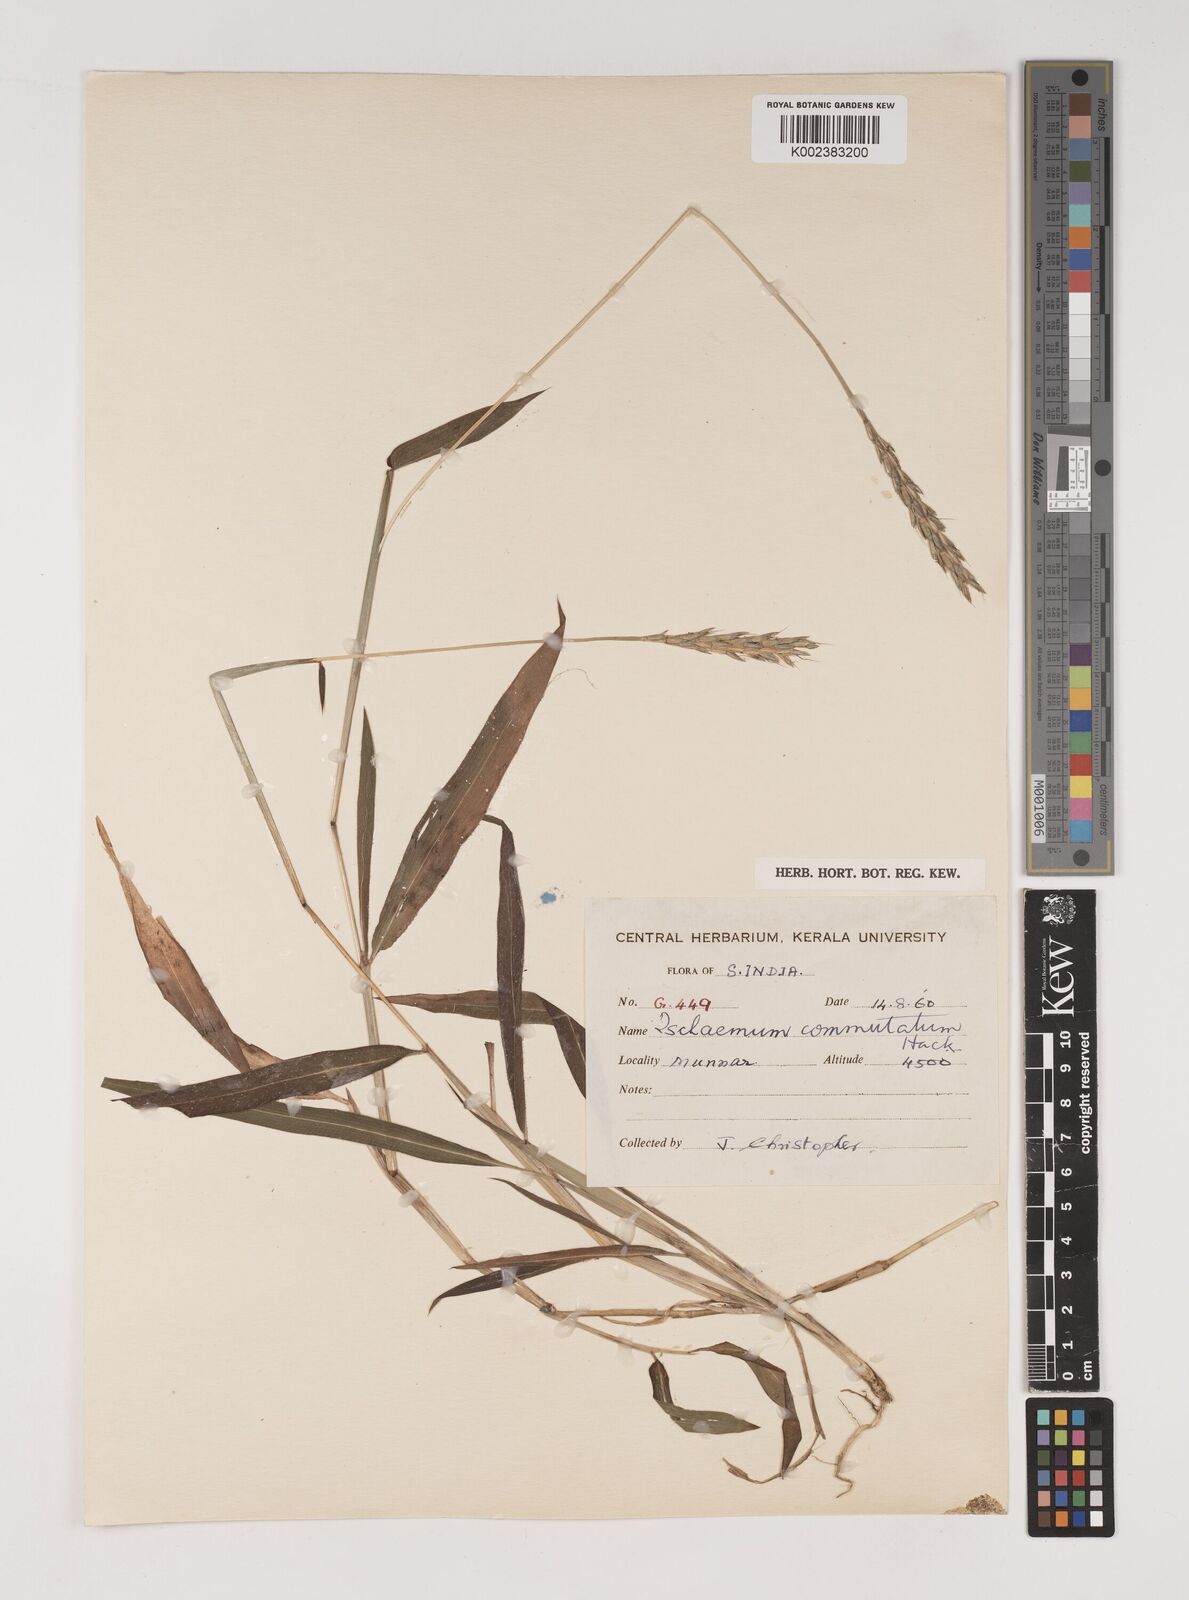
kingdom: Plantae
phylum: Tracheophyta
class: Liliopsida
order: Poales
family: Poaceae
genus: Ischaemum
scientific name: Ischaemum commutatum
